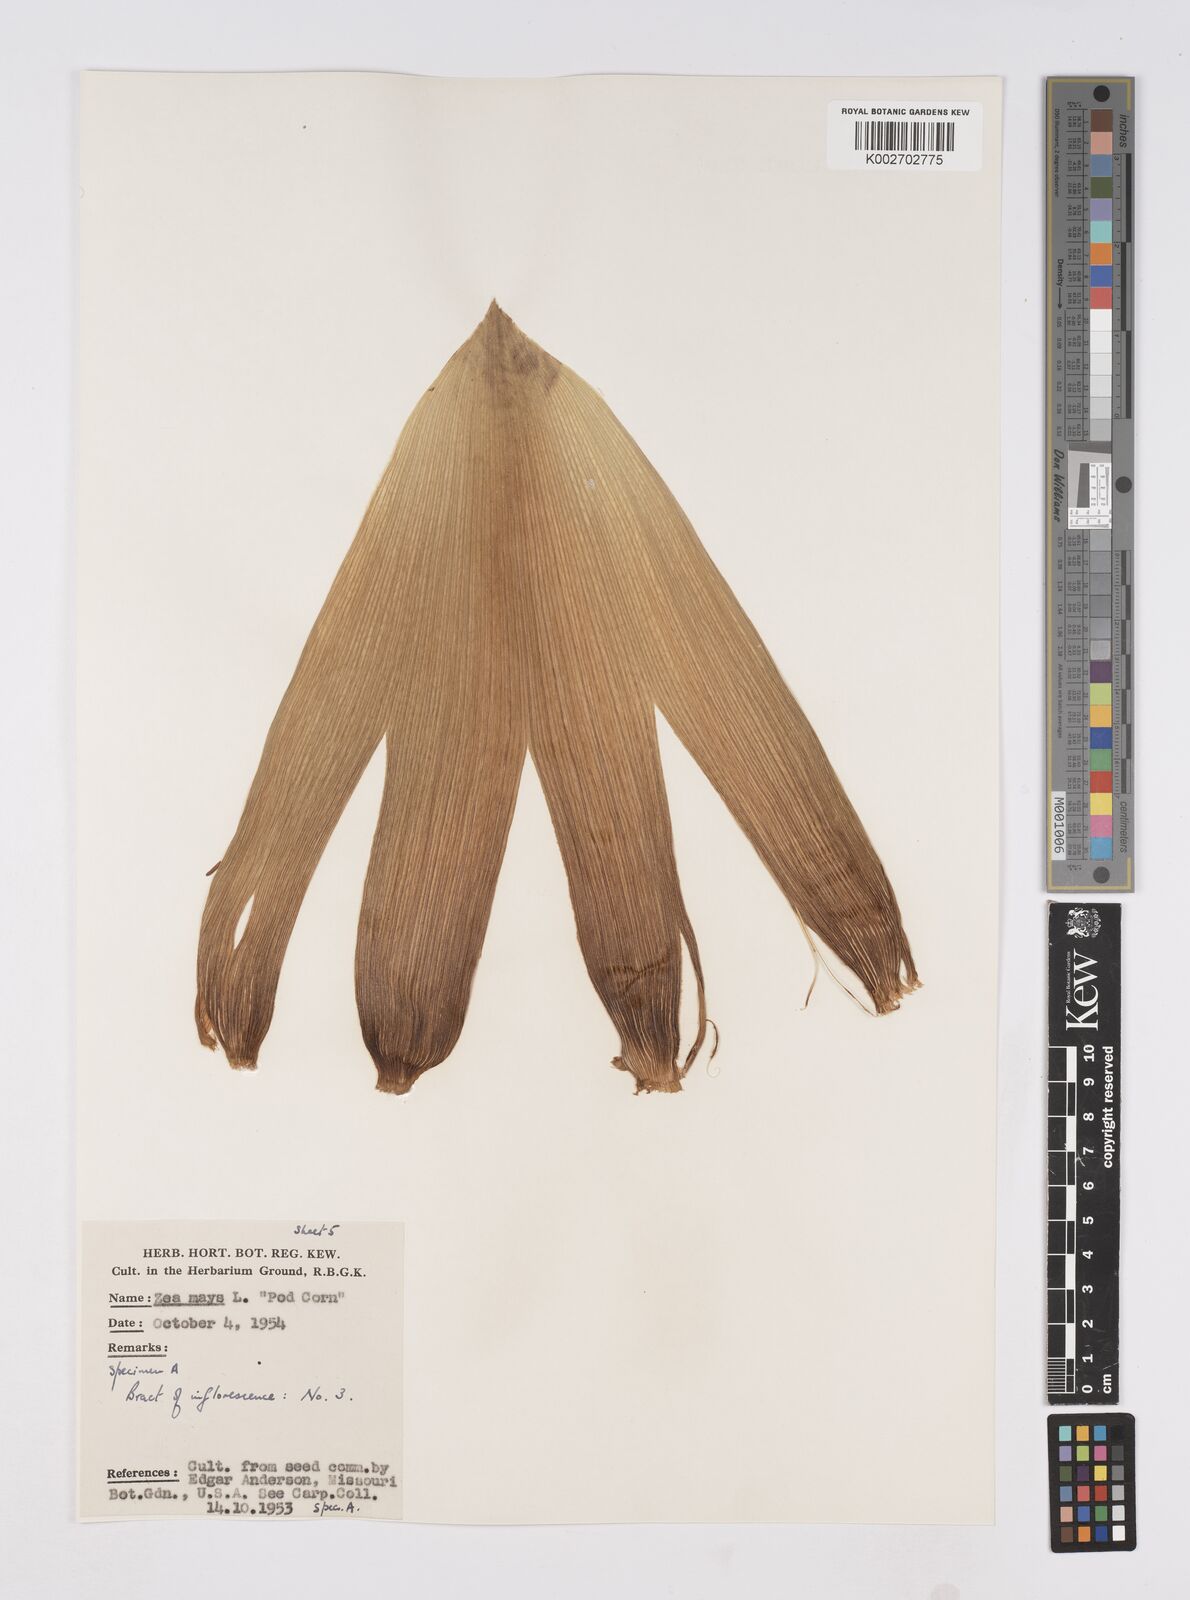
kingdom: Plantae
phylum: Tracheophyta
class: Liliopsida
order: Poales
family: Poaceae
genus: Zea
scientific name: Zea mays
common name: Maize
